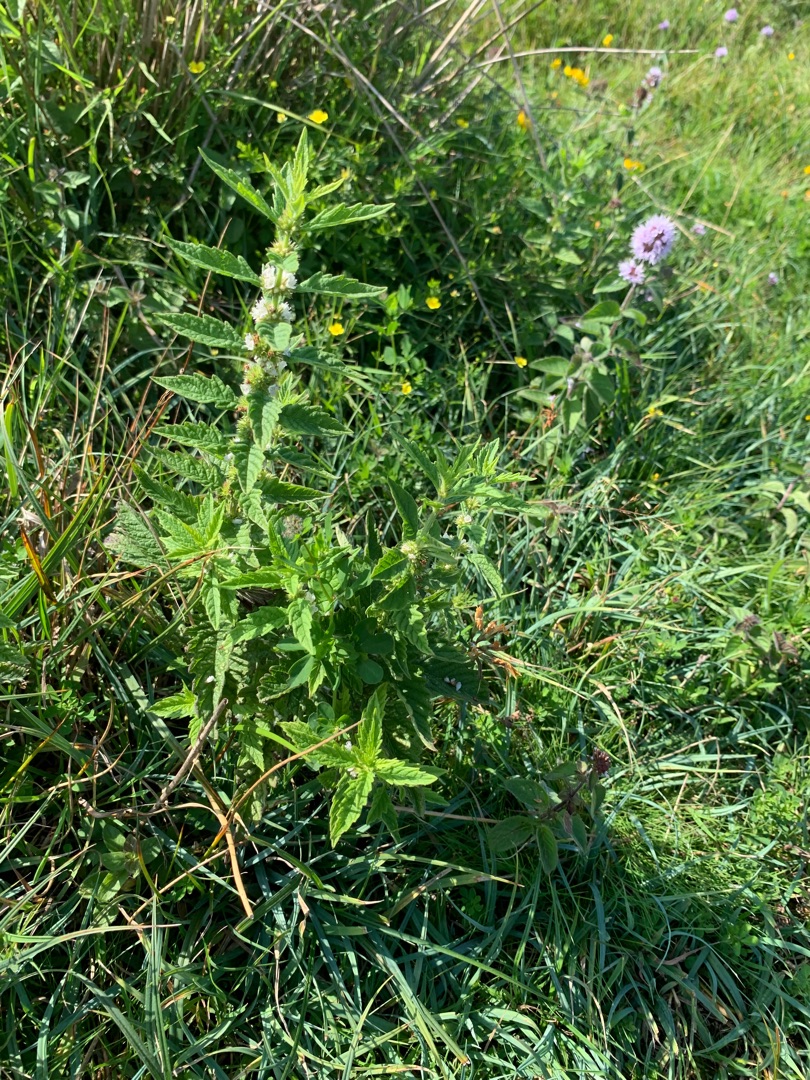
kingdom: Plantae
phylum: Tracheophyta
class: Magnoliopsida
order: Lamiales
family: Lamiaceae
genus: Lycopus
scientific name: Lycopus europaeus
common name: Sværtevæld
